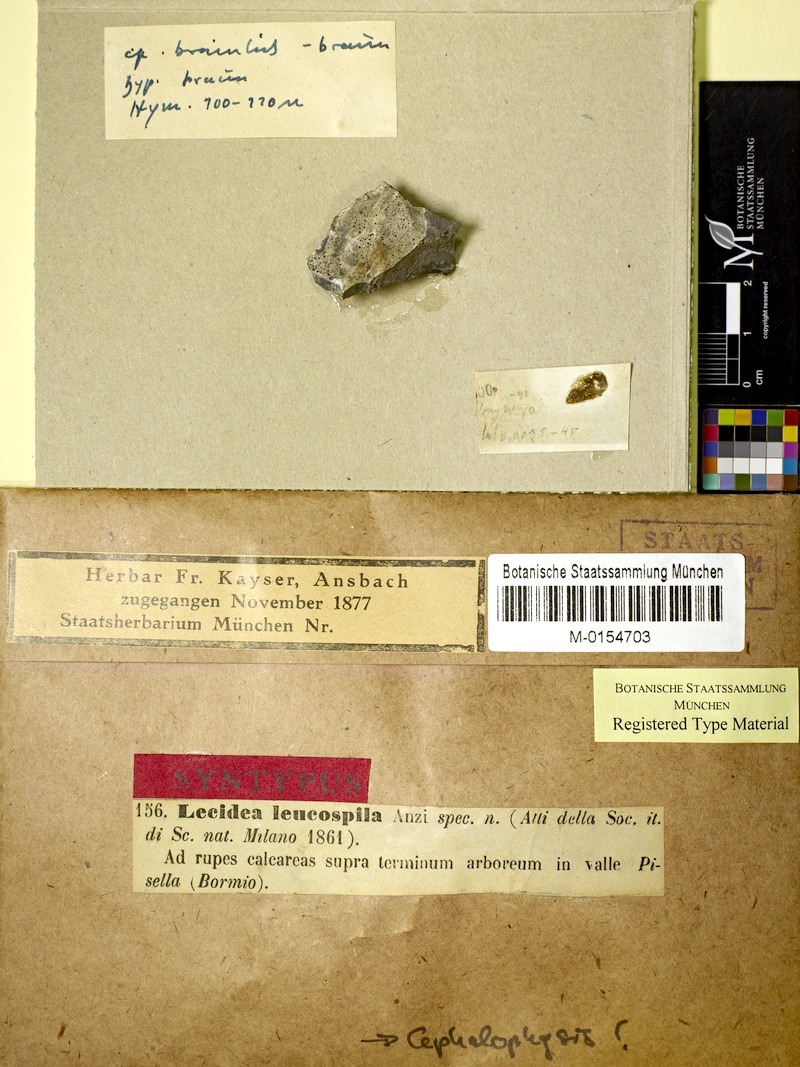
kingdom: Fungi
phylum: Ascomycota
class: Lecanoromycetes
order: Teloschistales
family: Teloschistaceae
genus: Cephalophysis
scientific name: Cephalophysis leucospila
